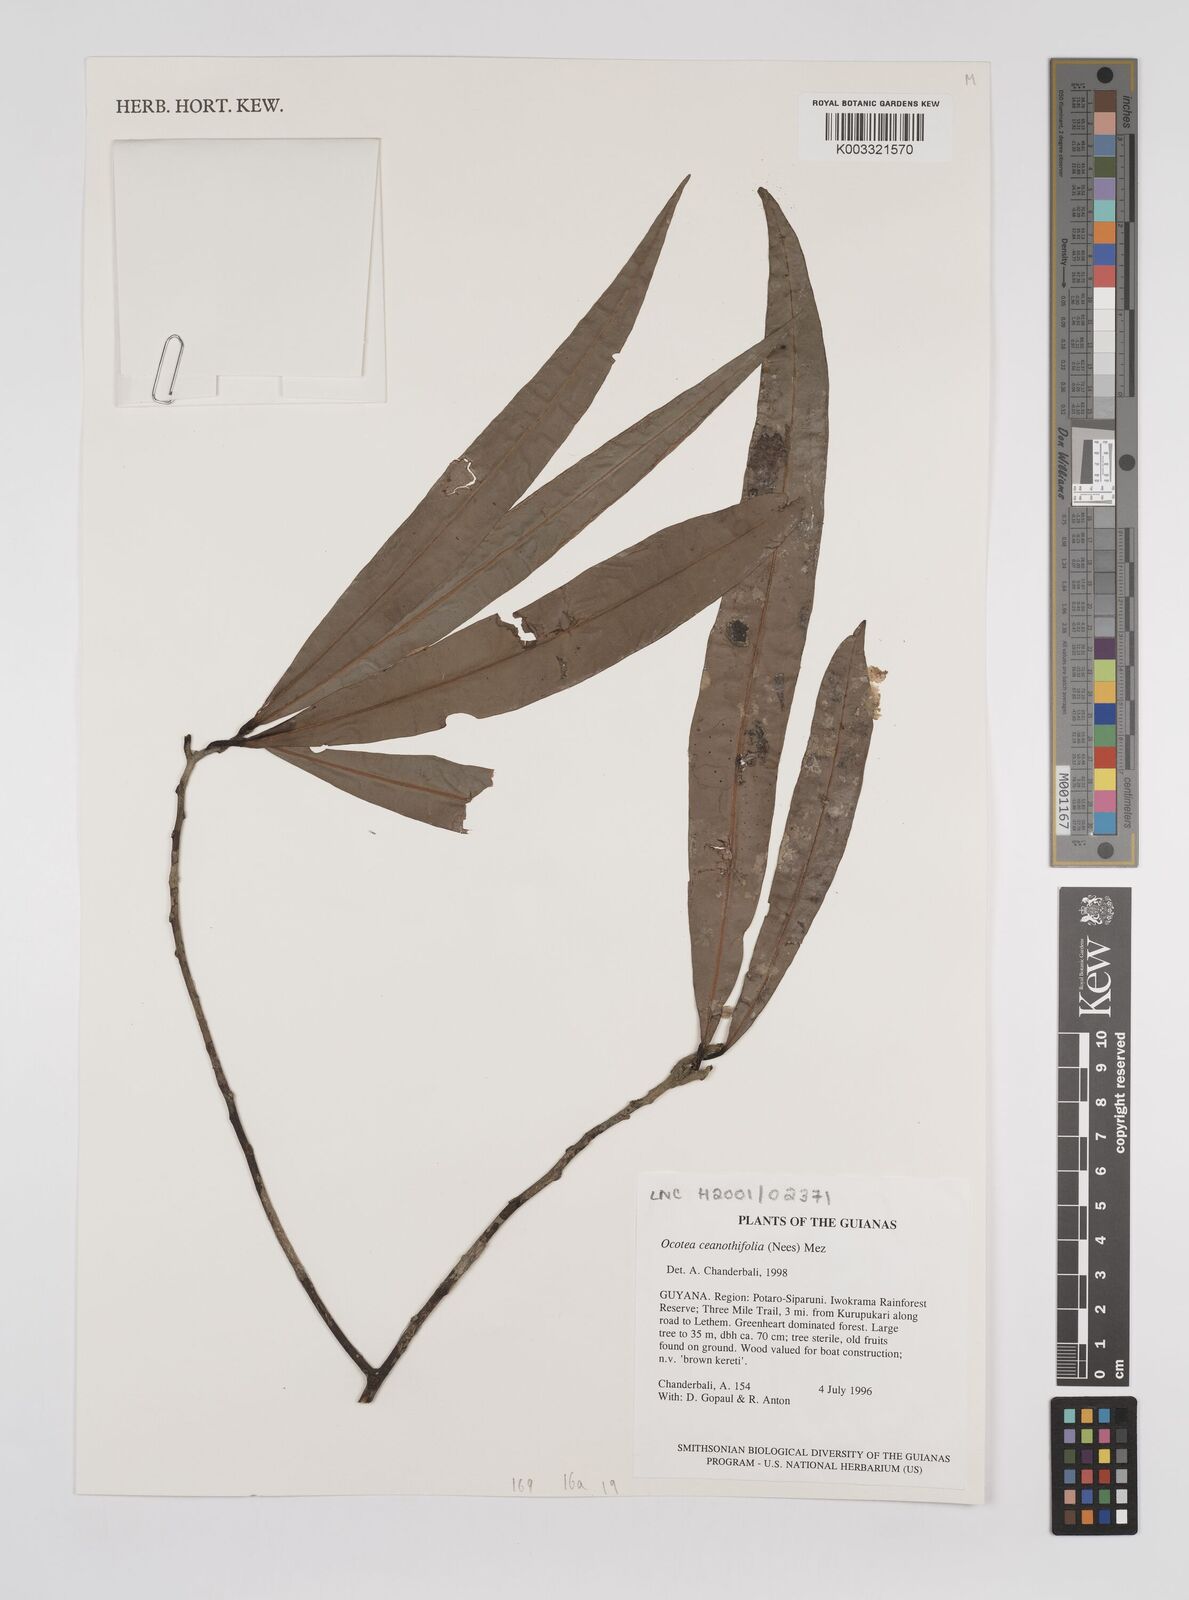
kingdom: Plantae
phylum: Tracheophyta
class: Magnoliopsida
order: Laurales
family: Lauraceae
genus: Mespilodaphne
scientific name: Mespilodaphne ceanothifolia
